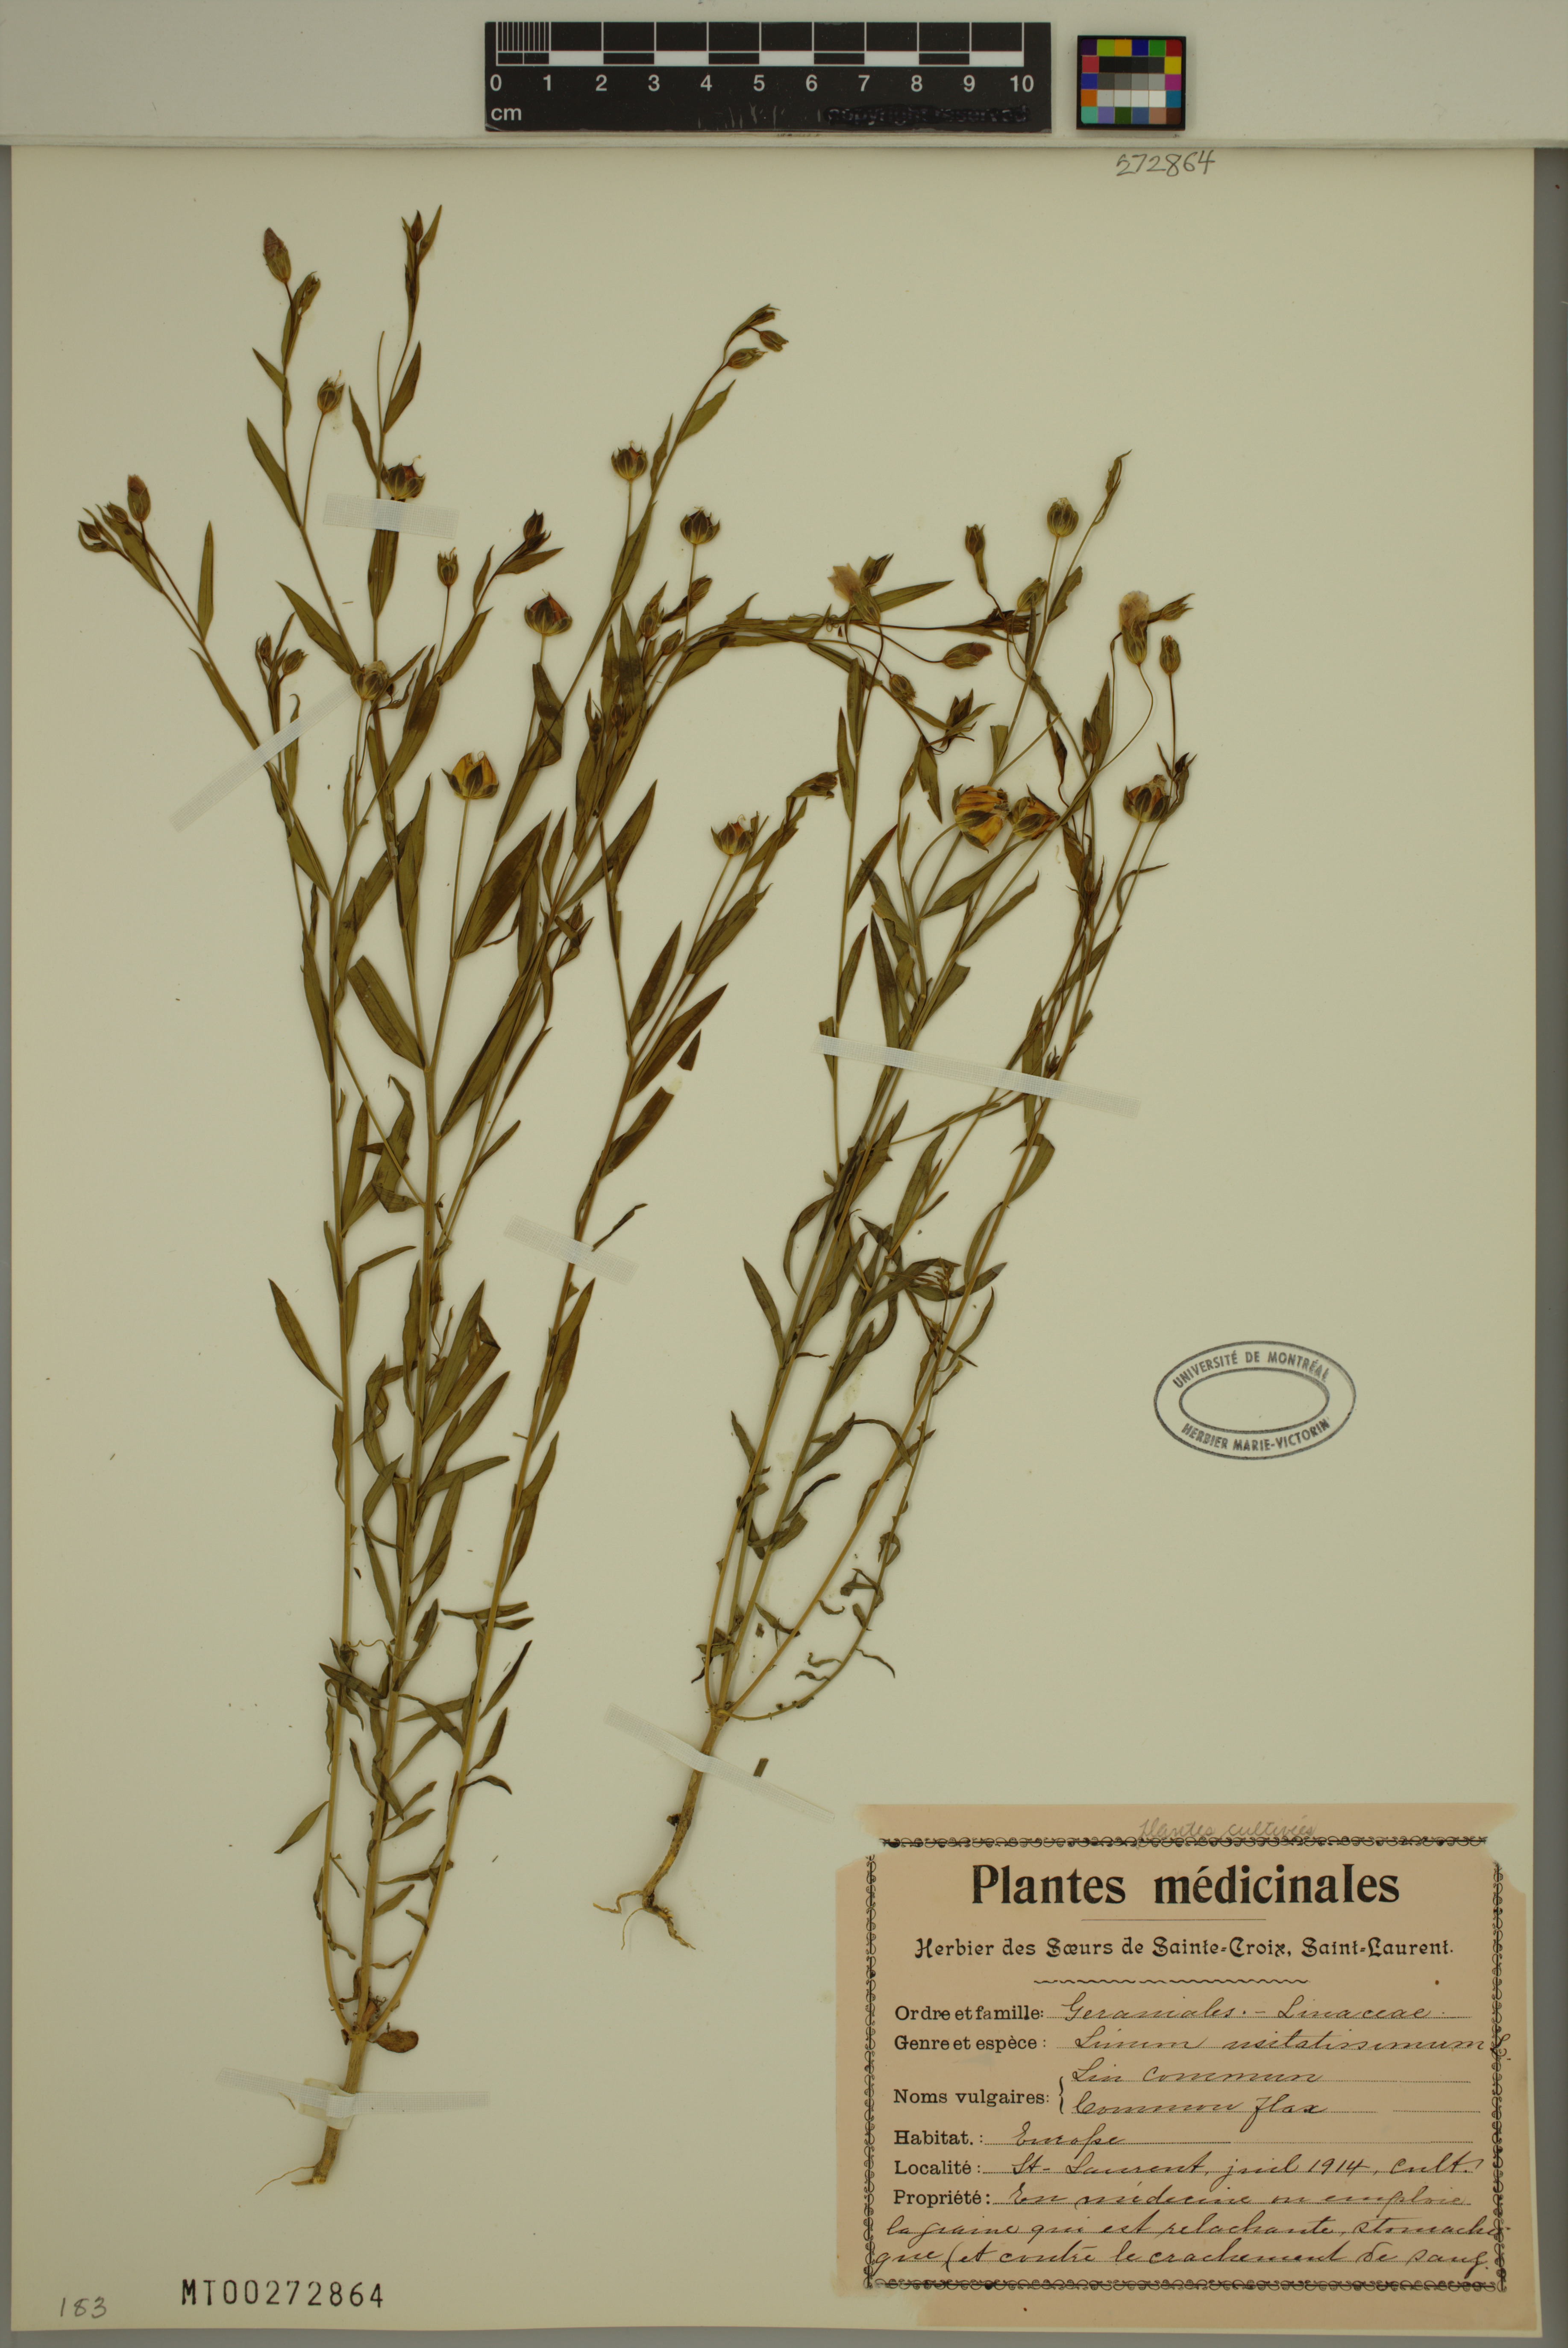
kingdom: Plantae
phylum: Tracheophyta
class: Magnoliopsida
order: Malpighiales
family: Linaceae
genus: Linum
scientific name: Linum usitatissimum
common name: Flax
